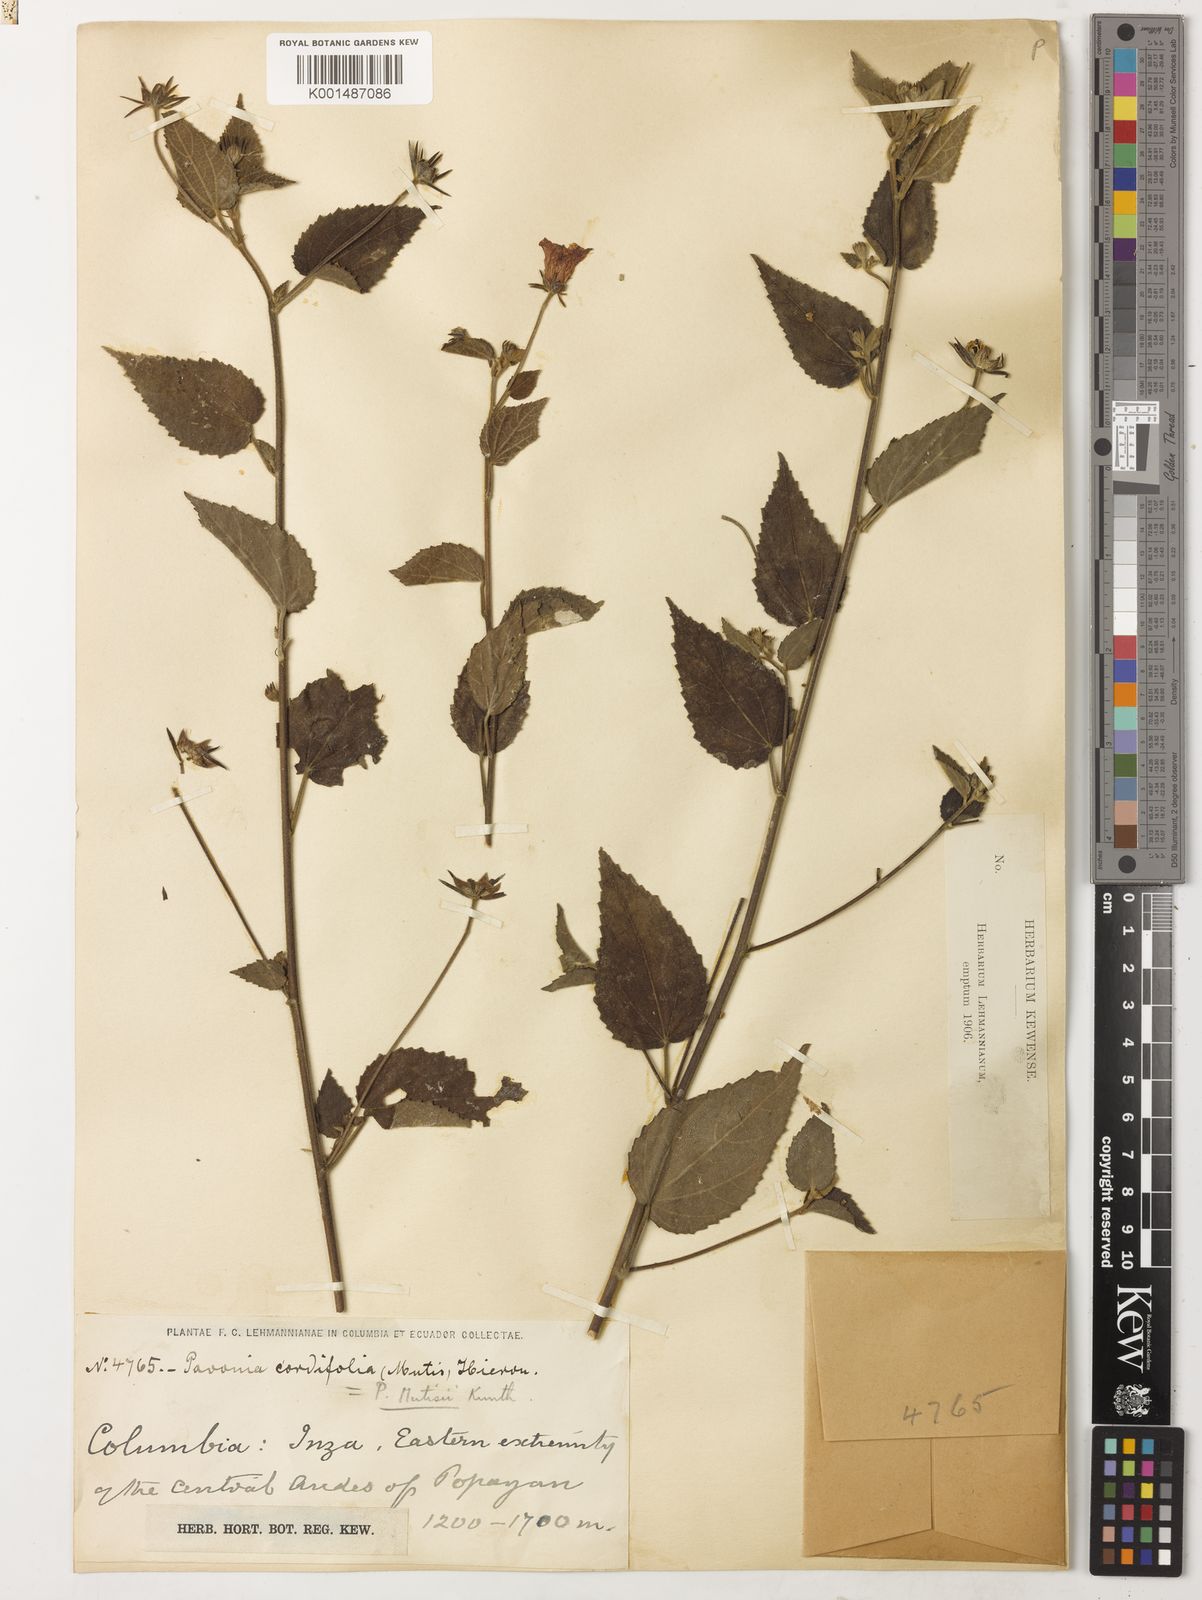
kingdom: Plantae
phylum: Tracheophyta
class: Magnoliopsida
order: Malvales
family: Malvaceae
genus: Pavonia
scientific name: Pavonia mutisii
